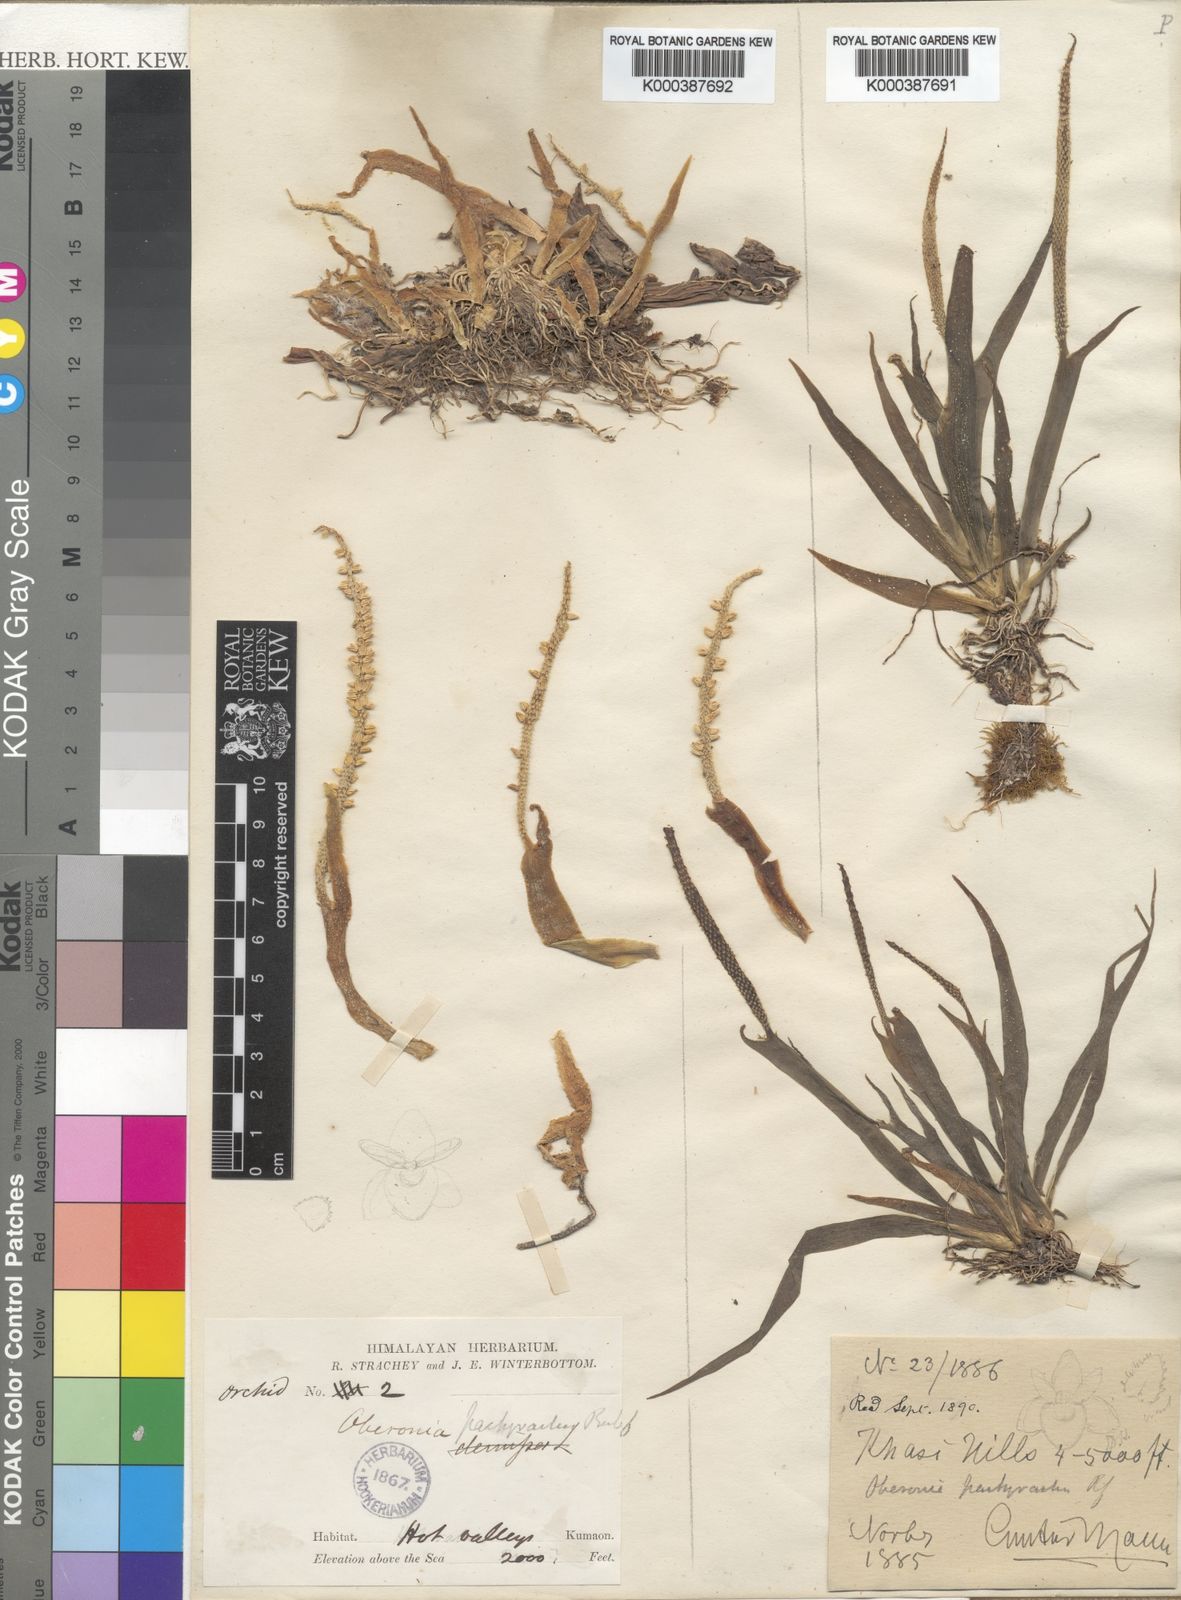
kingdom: Plantae
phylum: Tracheophyta
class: Liliopsida
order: Asparagales
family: Orchidaceae
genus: Oberonia
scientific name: Oberonia pachyrachis
